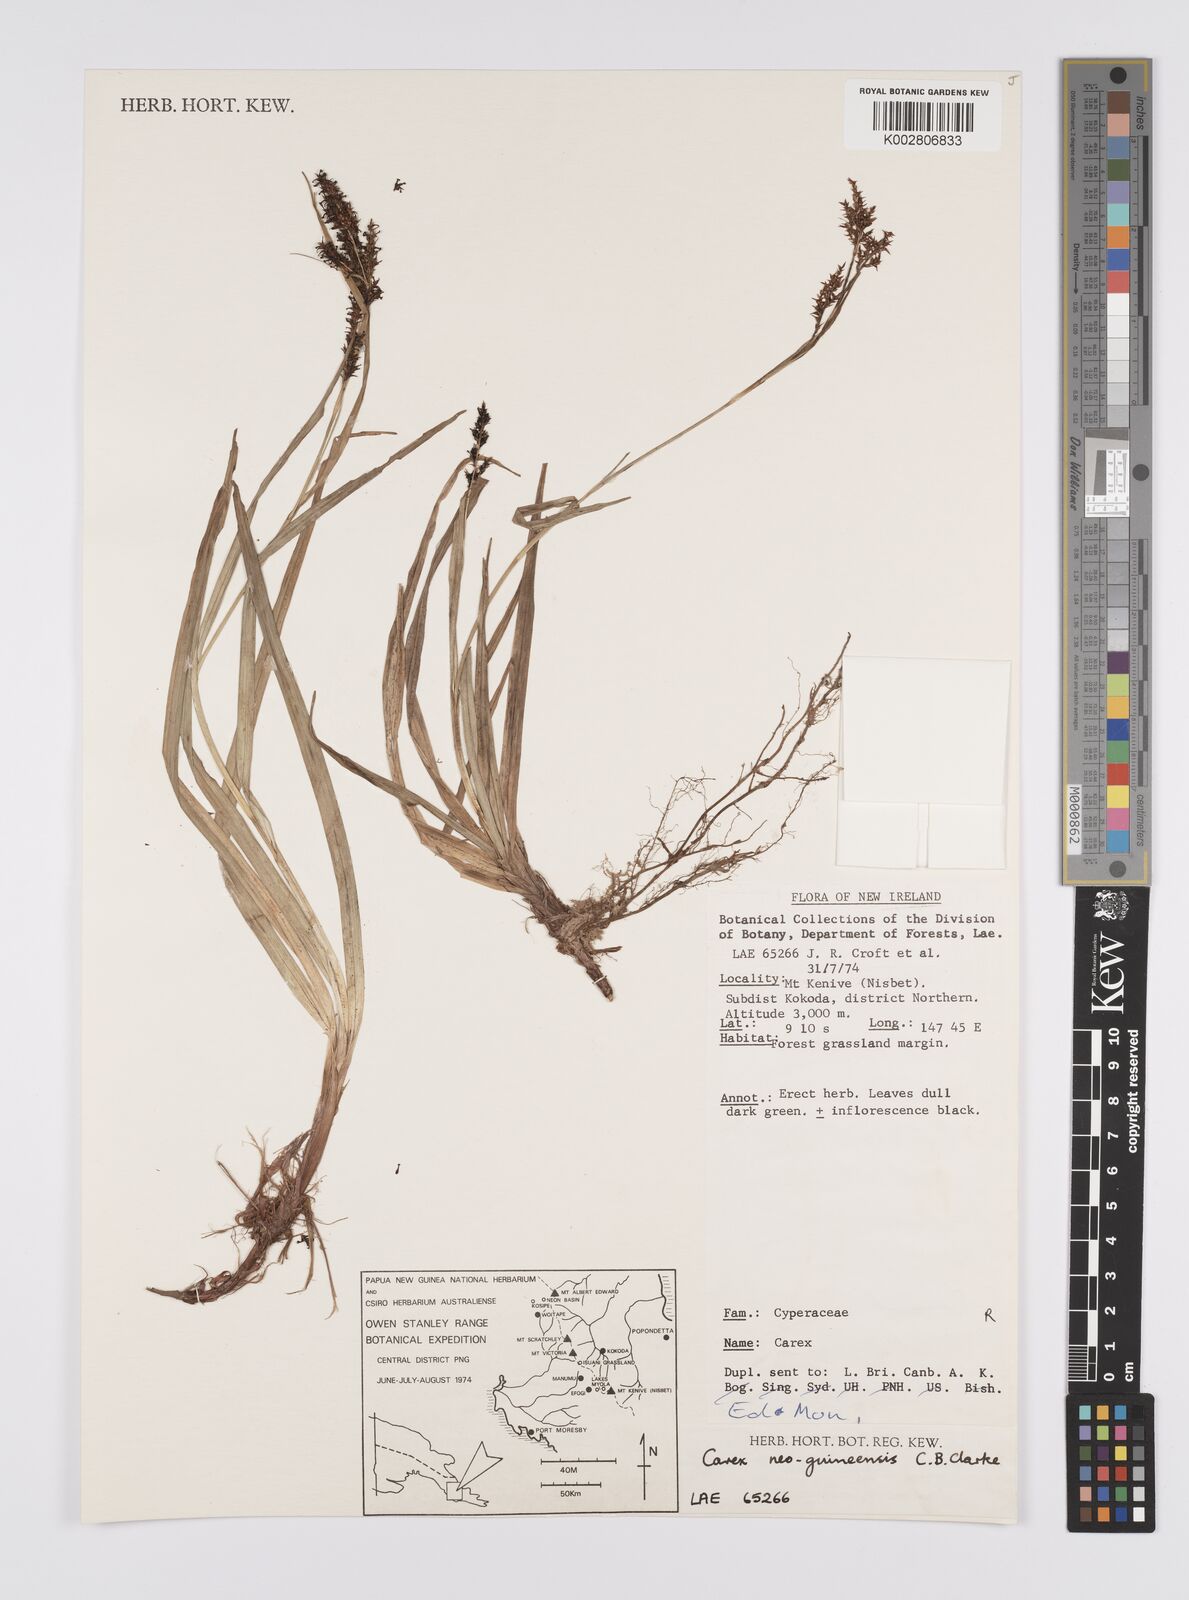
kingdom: Plantae
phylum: Tracheophyta
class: Liliopsida
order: Poales
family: Cyperaceae
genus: Carex
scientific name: Carex filicina
